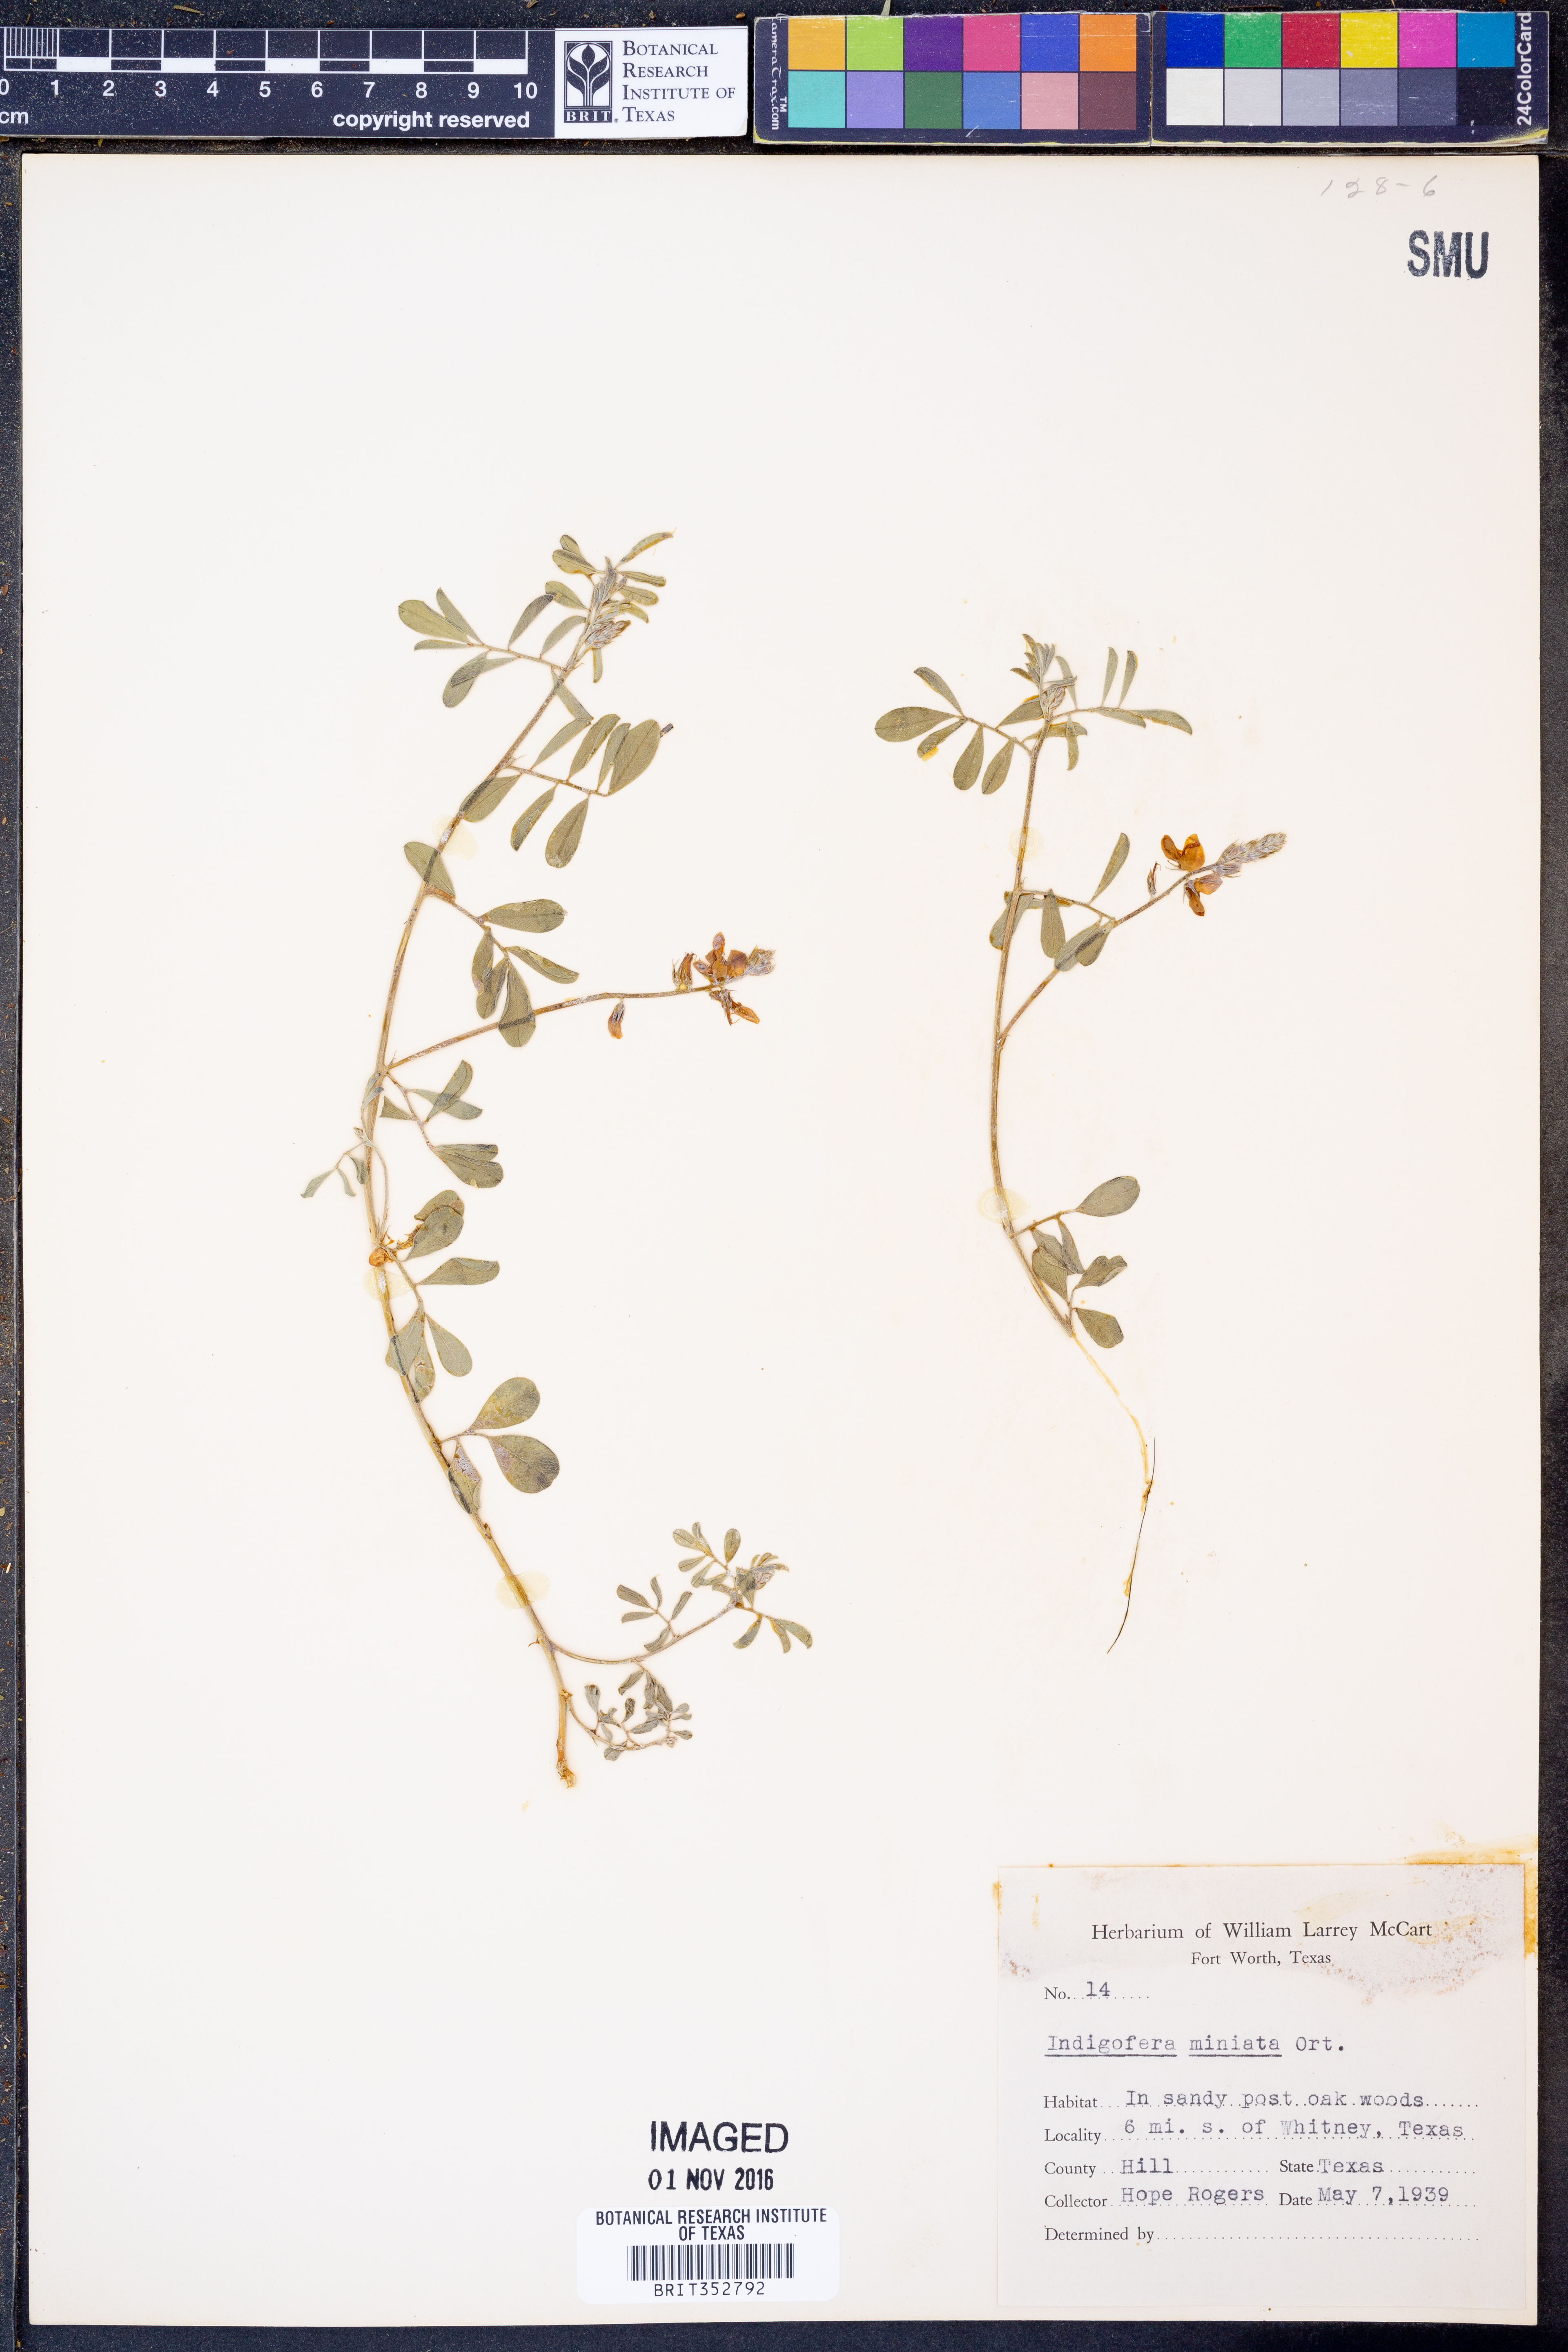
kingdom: Plantae
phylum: Tracheophyta
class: Magnoliopsida
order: Fabales
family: Fabaceae
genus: Indigofera
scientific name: Indigofera miniata
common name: Coast indigo
